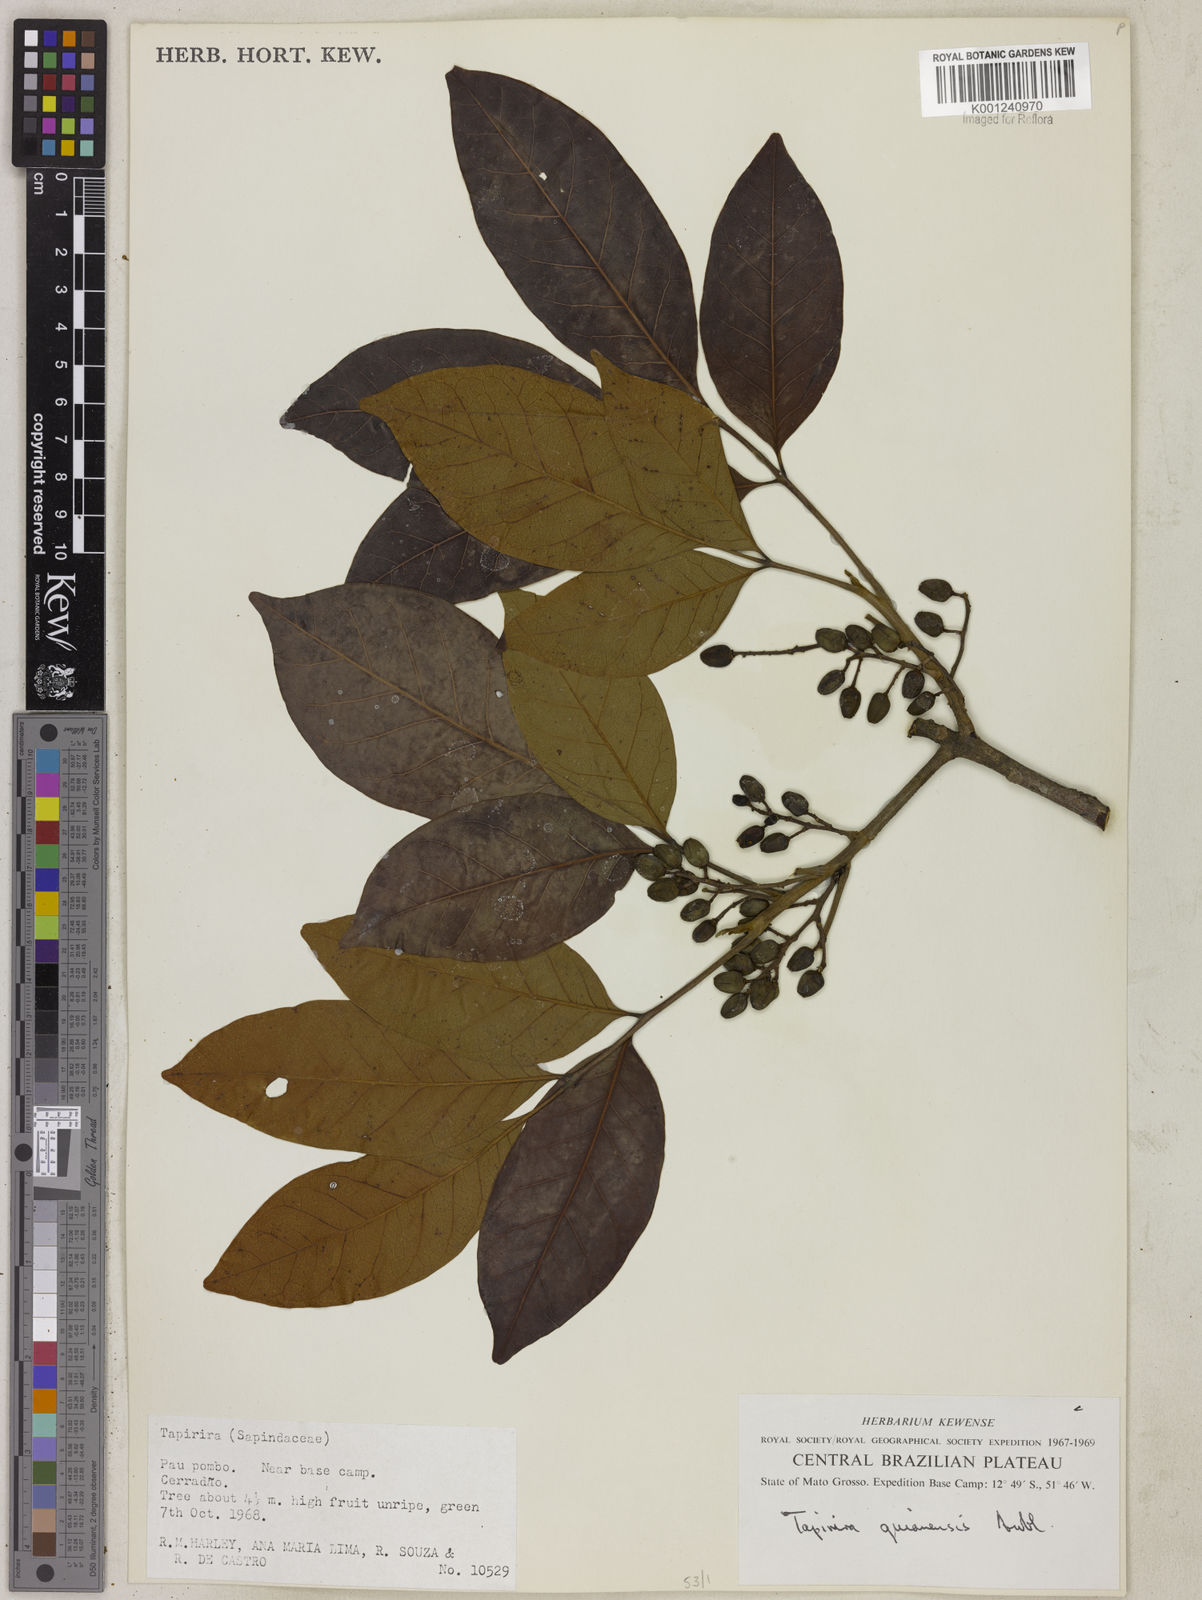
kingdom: Plantae
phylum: Tracheophyta
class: Magnoliopsida
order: Sapindales
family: Anacardiaceae
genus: Tapirira
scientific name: Tapirira guianensis
